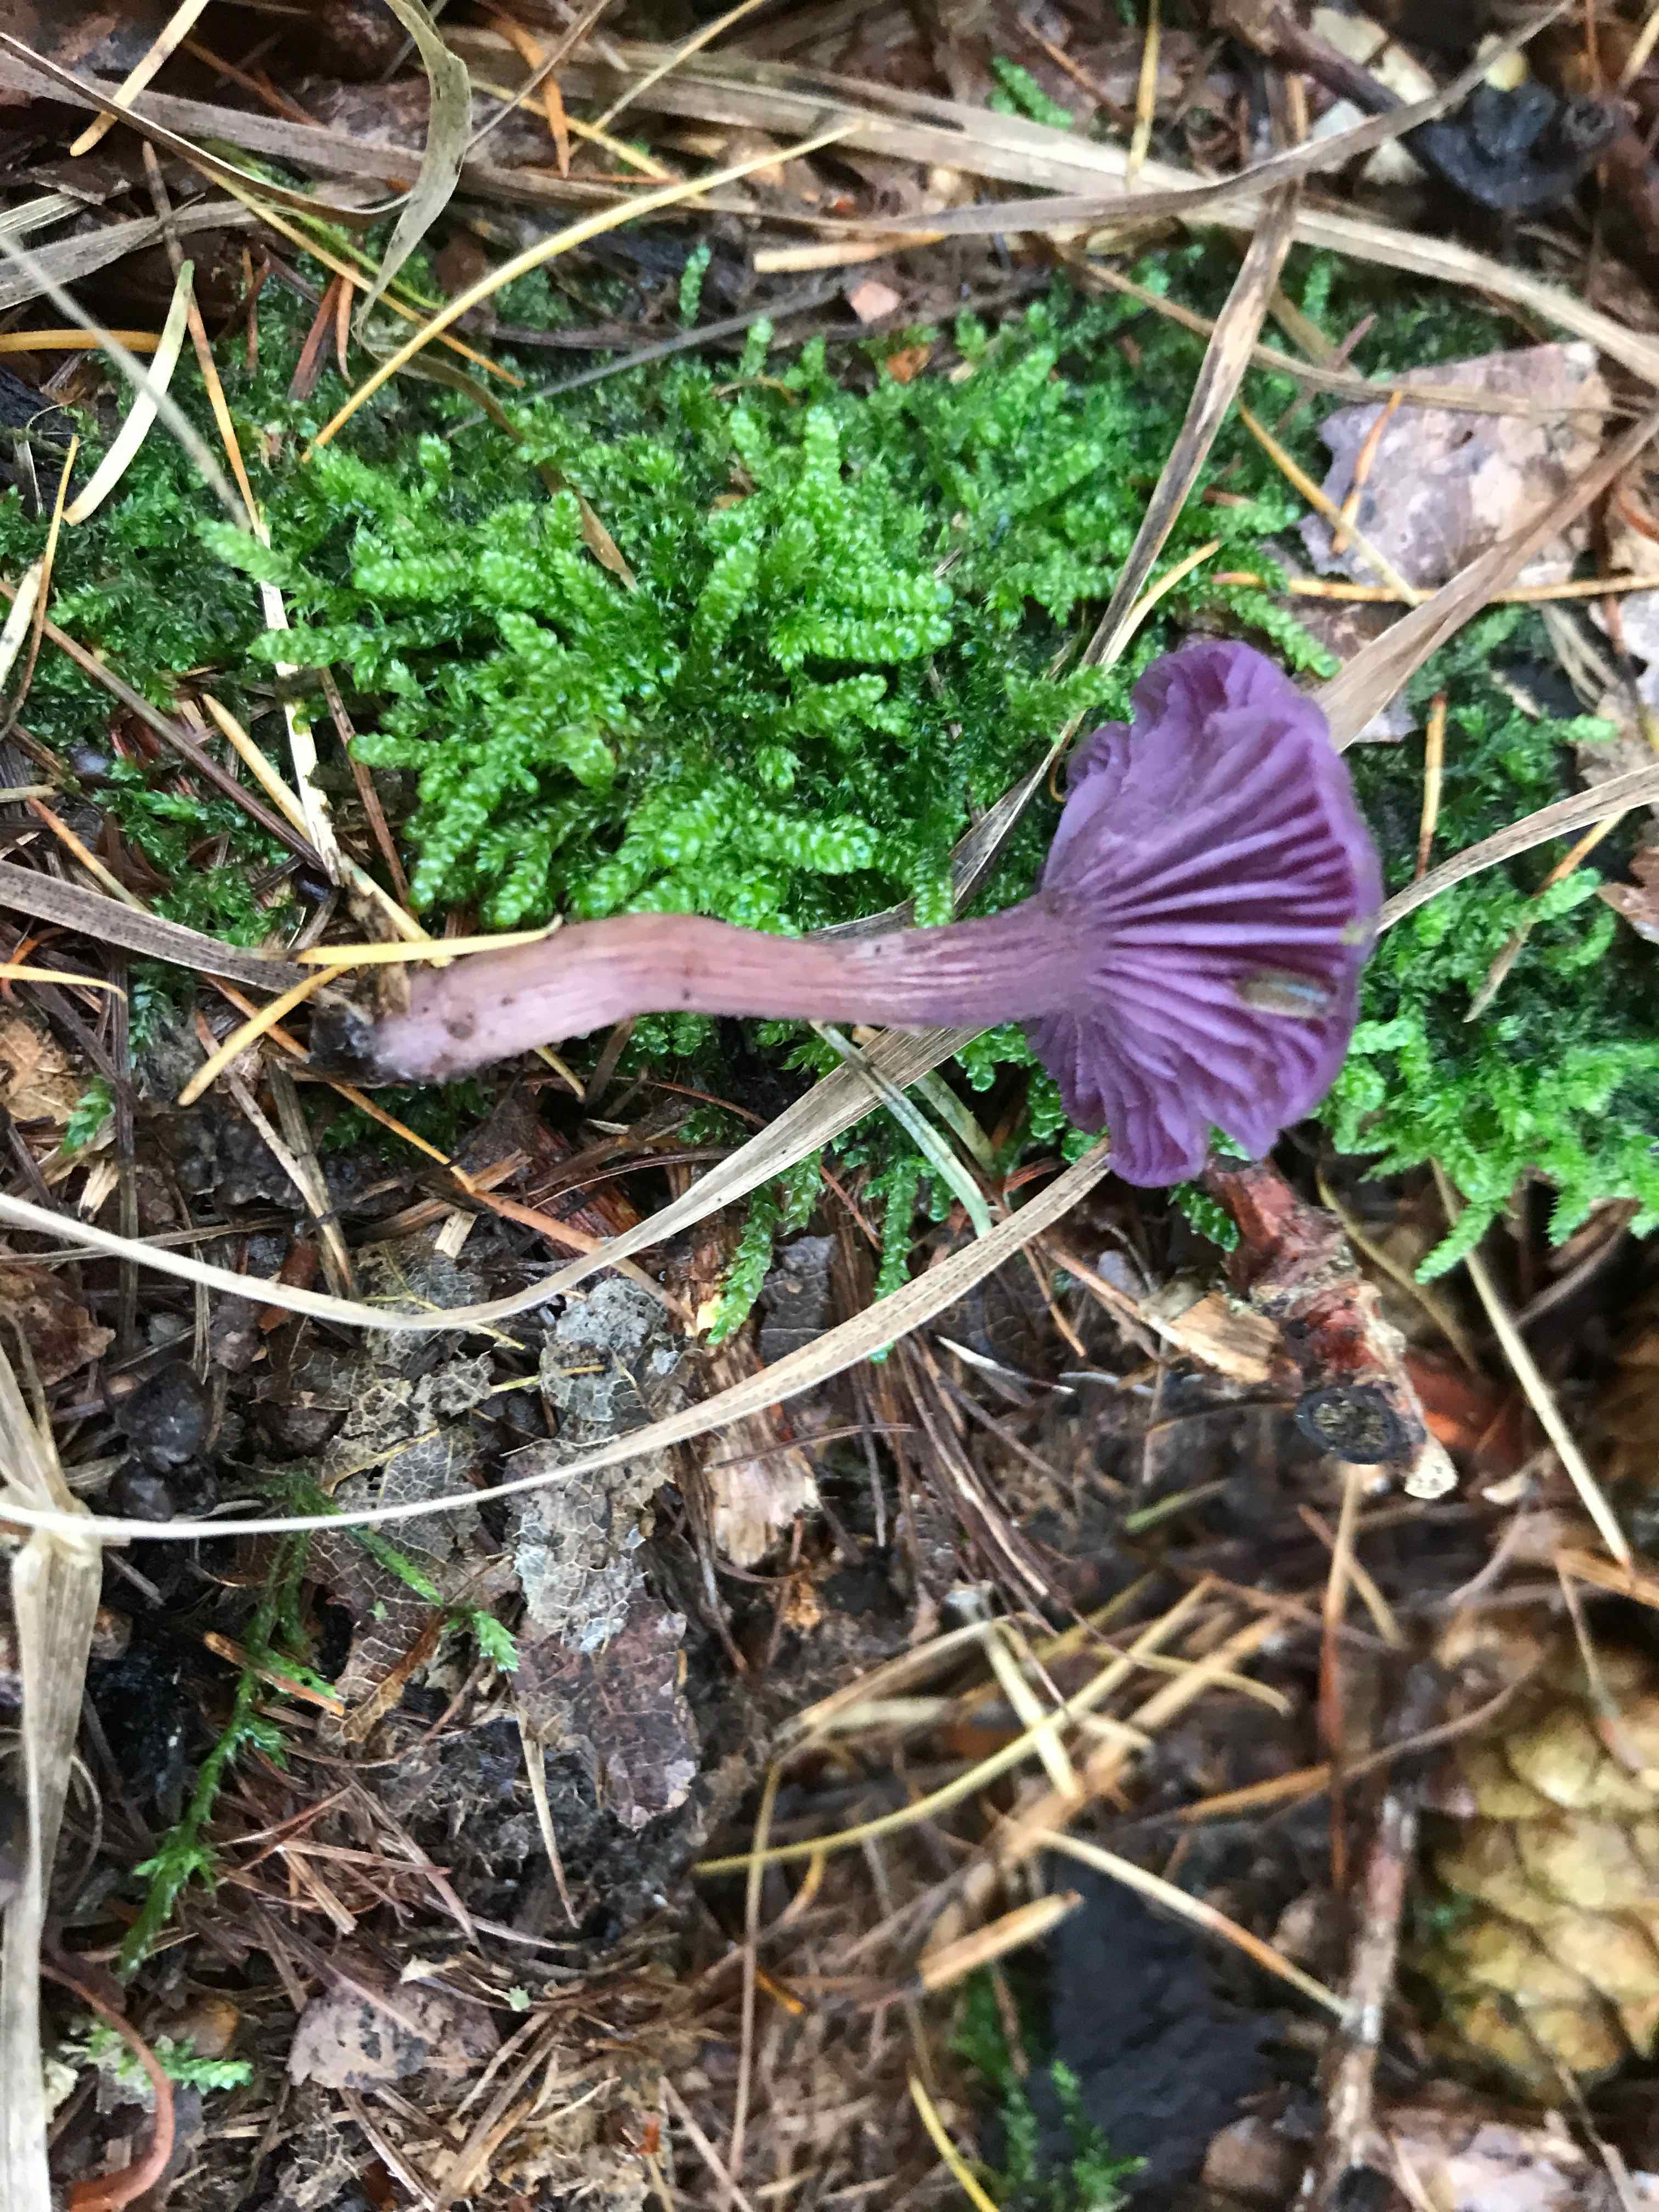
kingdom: Fungi
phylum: Basidiomycota
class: Agaricomycetes
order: Agaricales
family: Hydnangiaceae
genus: Laccaria
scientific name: Laccaria amethystina
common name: violet ametysthat
